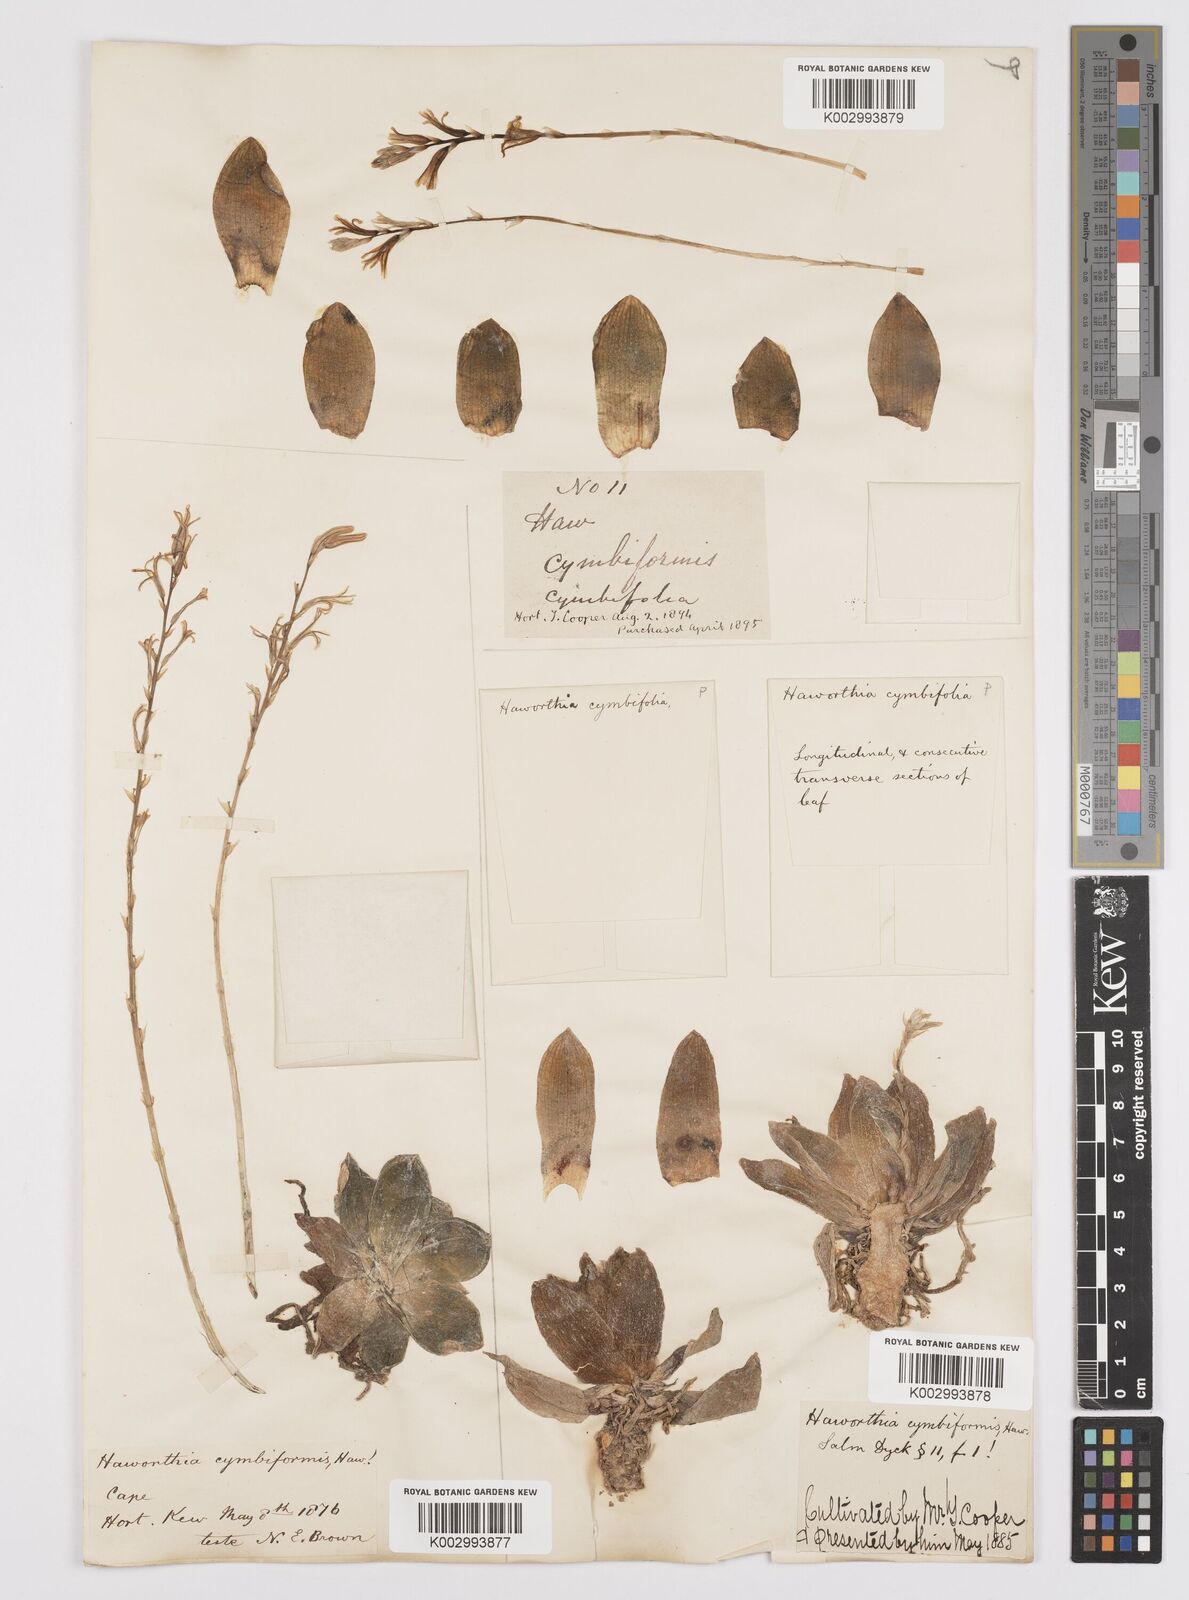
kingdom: Plantae
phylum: Tracheophyta
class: Liliopsida
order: Asparagales
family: Asphodelaceae
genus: Haworthia
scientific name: Haworthia cymbiformis
